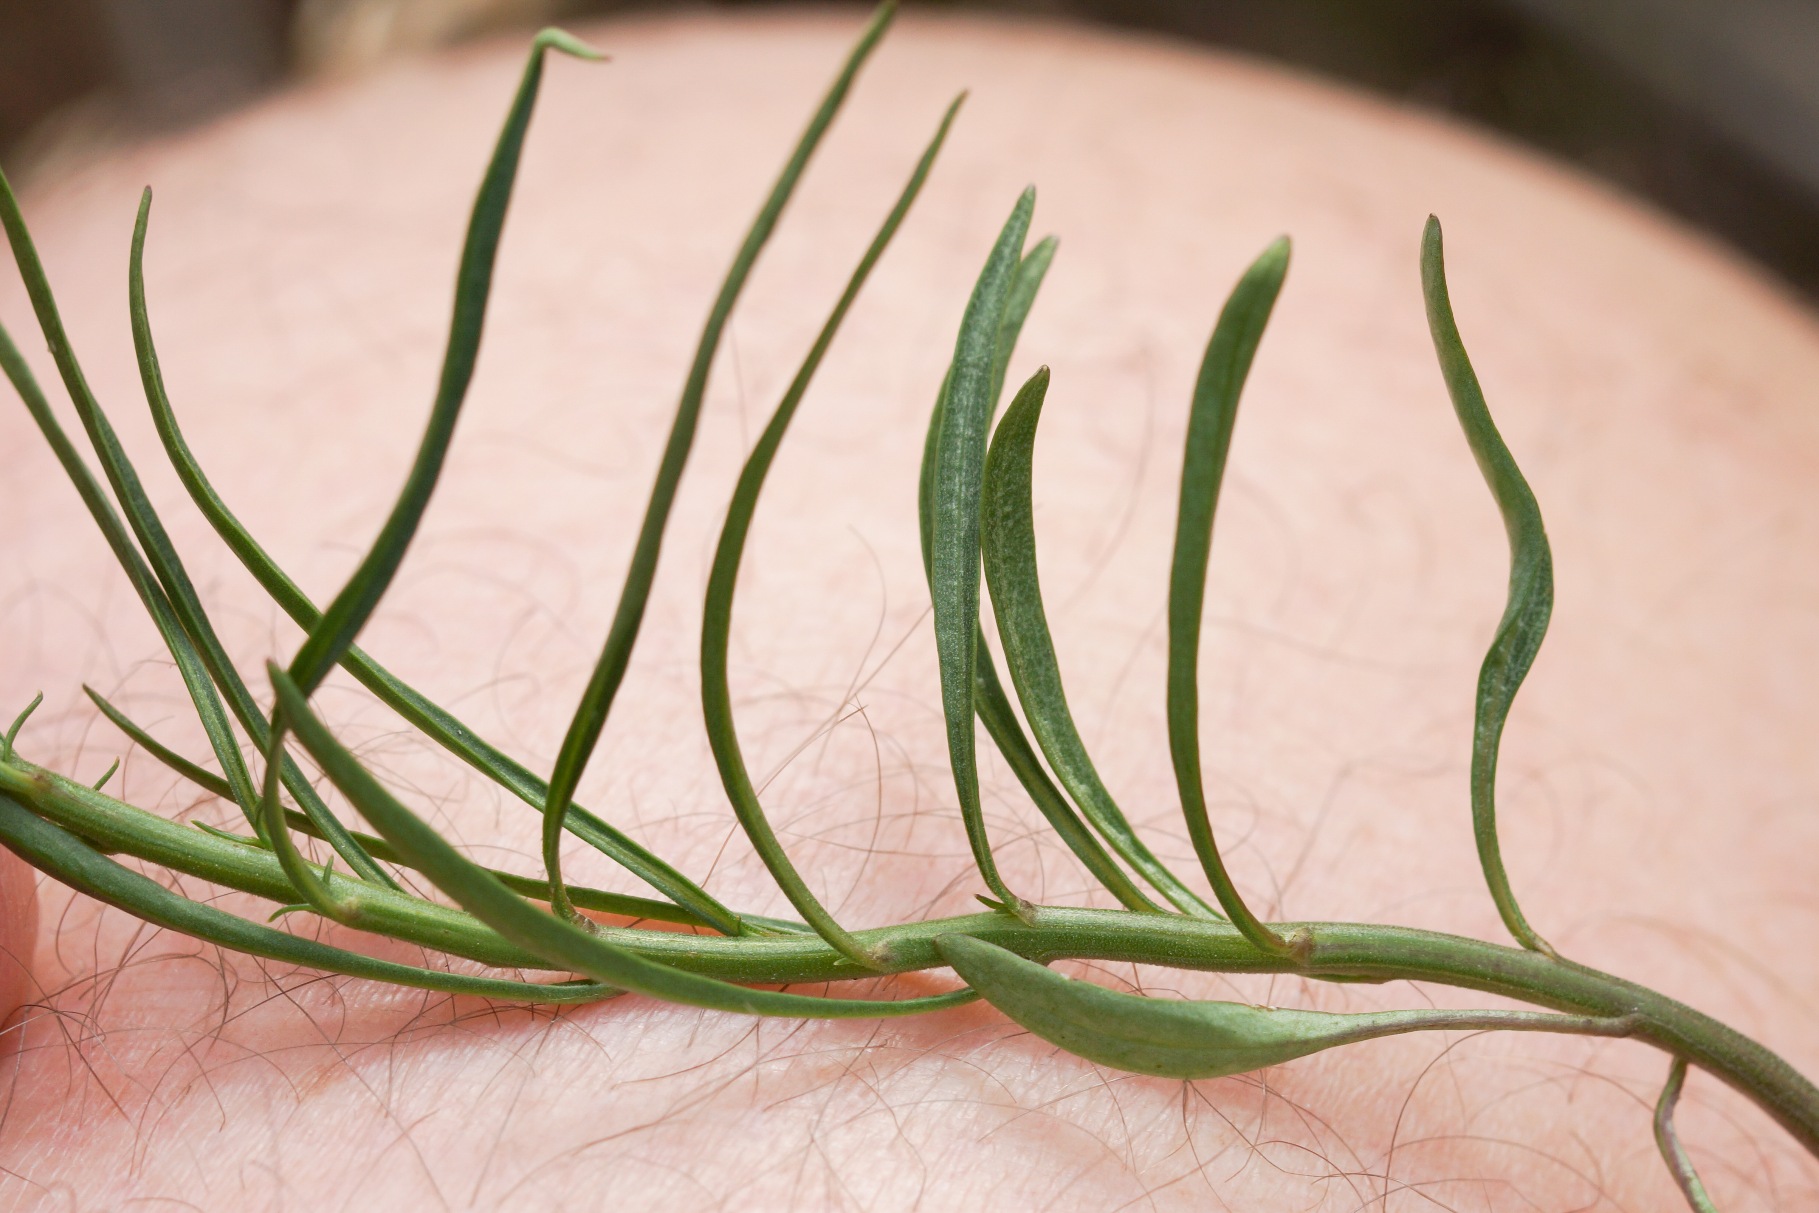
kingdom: Plantae
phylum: Tracheophyta
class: Magnoliopsida
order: Asterales
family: Campanulaceae
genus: Campanula
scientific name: Campanula rotundifolia
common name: Liden klokke
